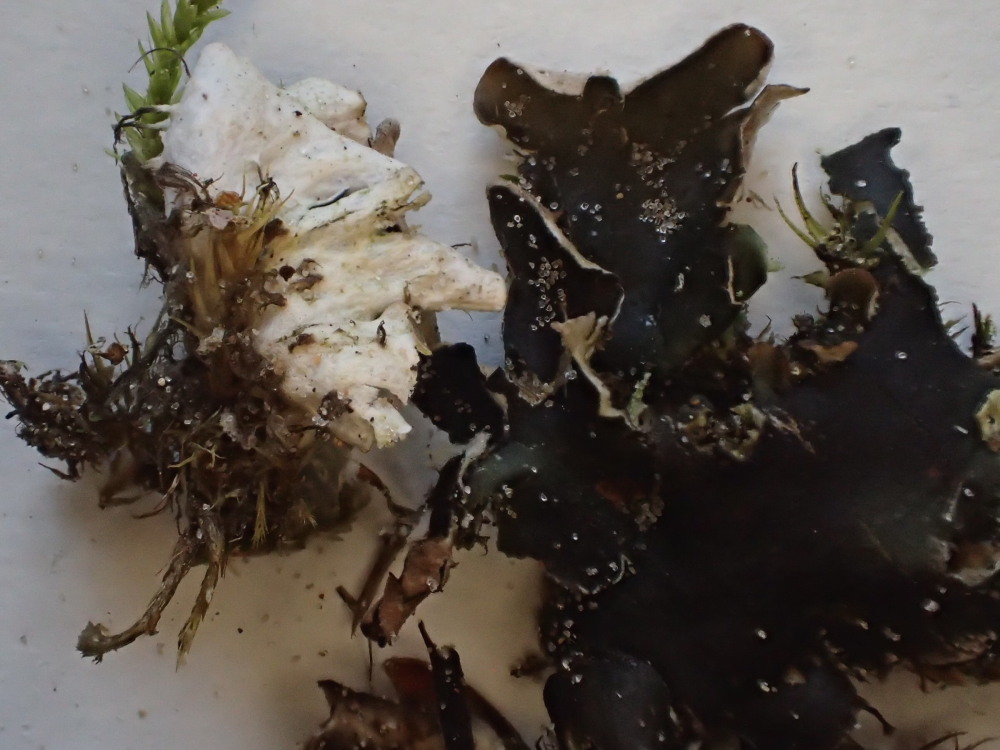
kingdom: Fungi
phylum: Ascomycota
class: Lecanoromycetes
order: Peltigerales
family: Peltigeraceae
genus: Peltigera
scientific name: Peltigera hymenina
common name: hinde-skjoldlav
